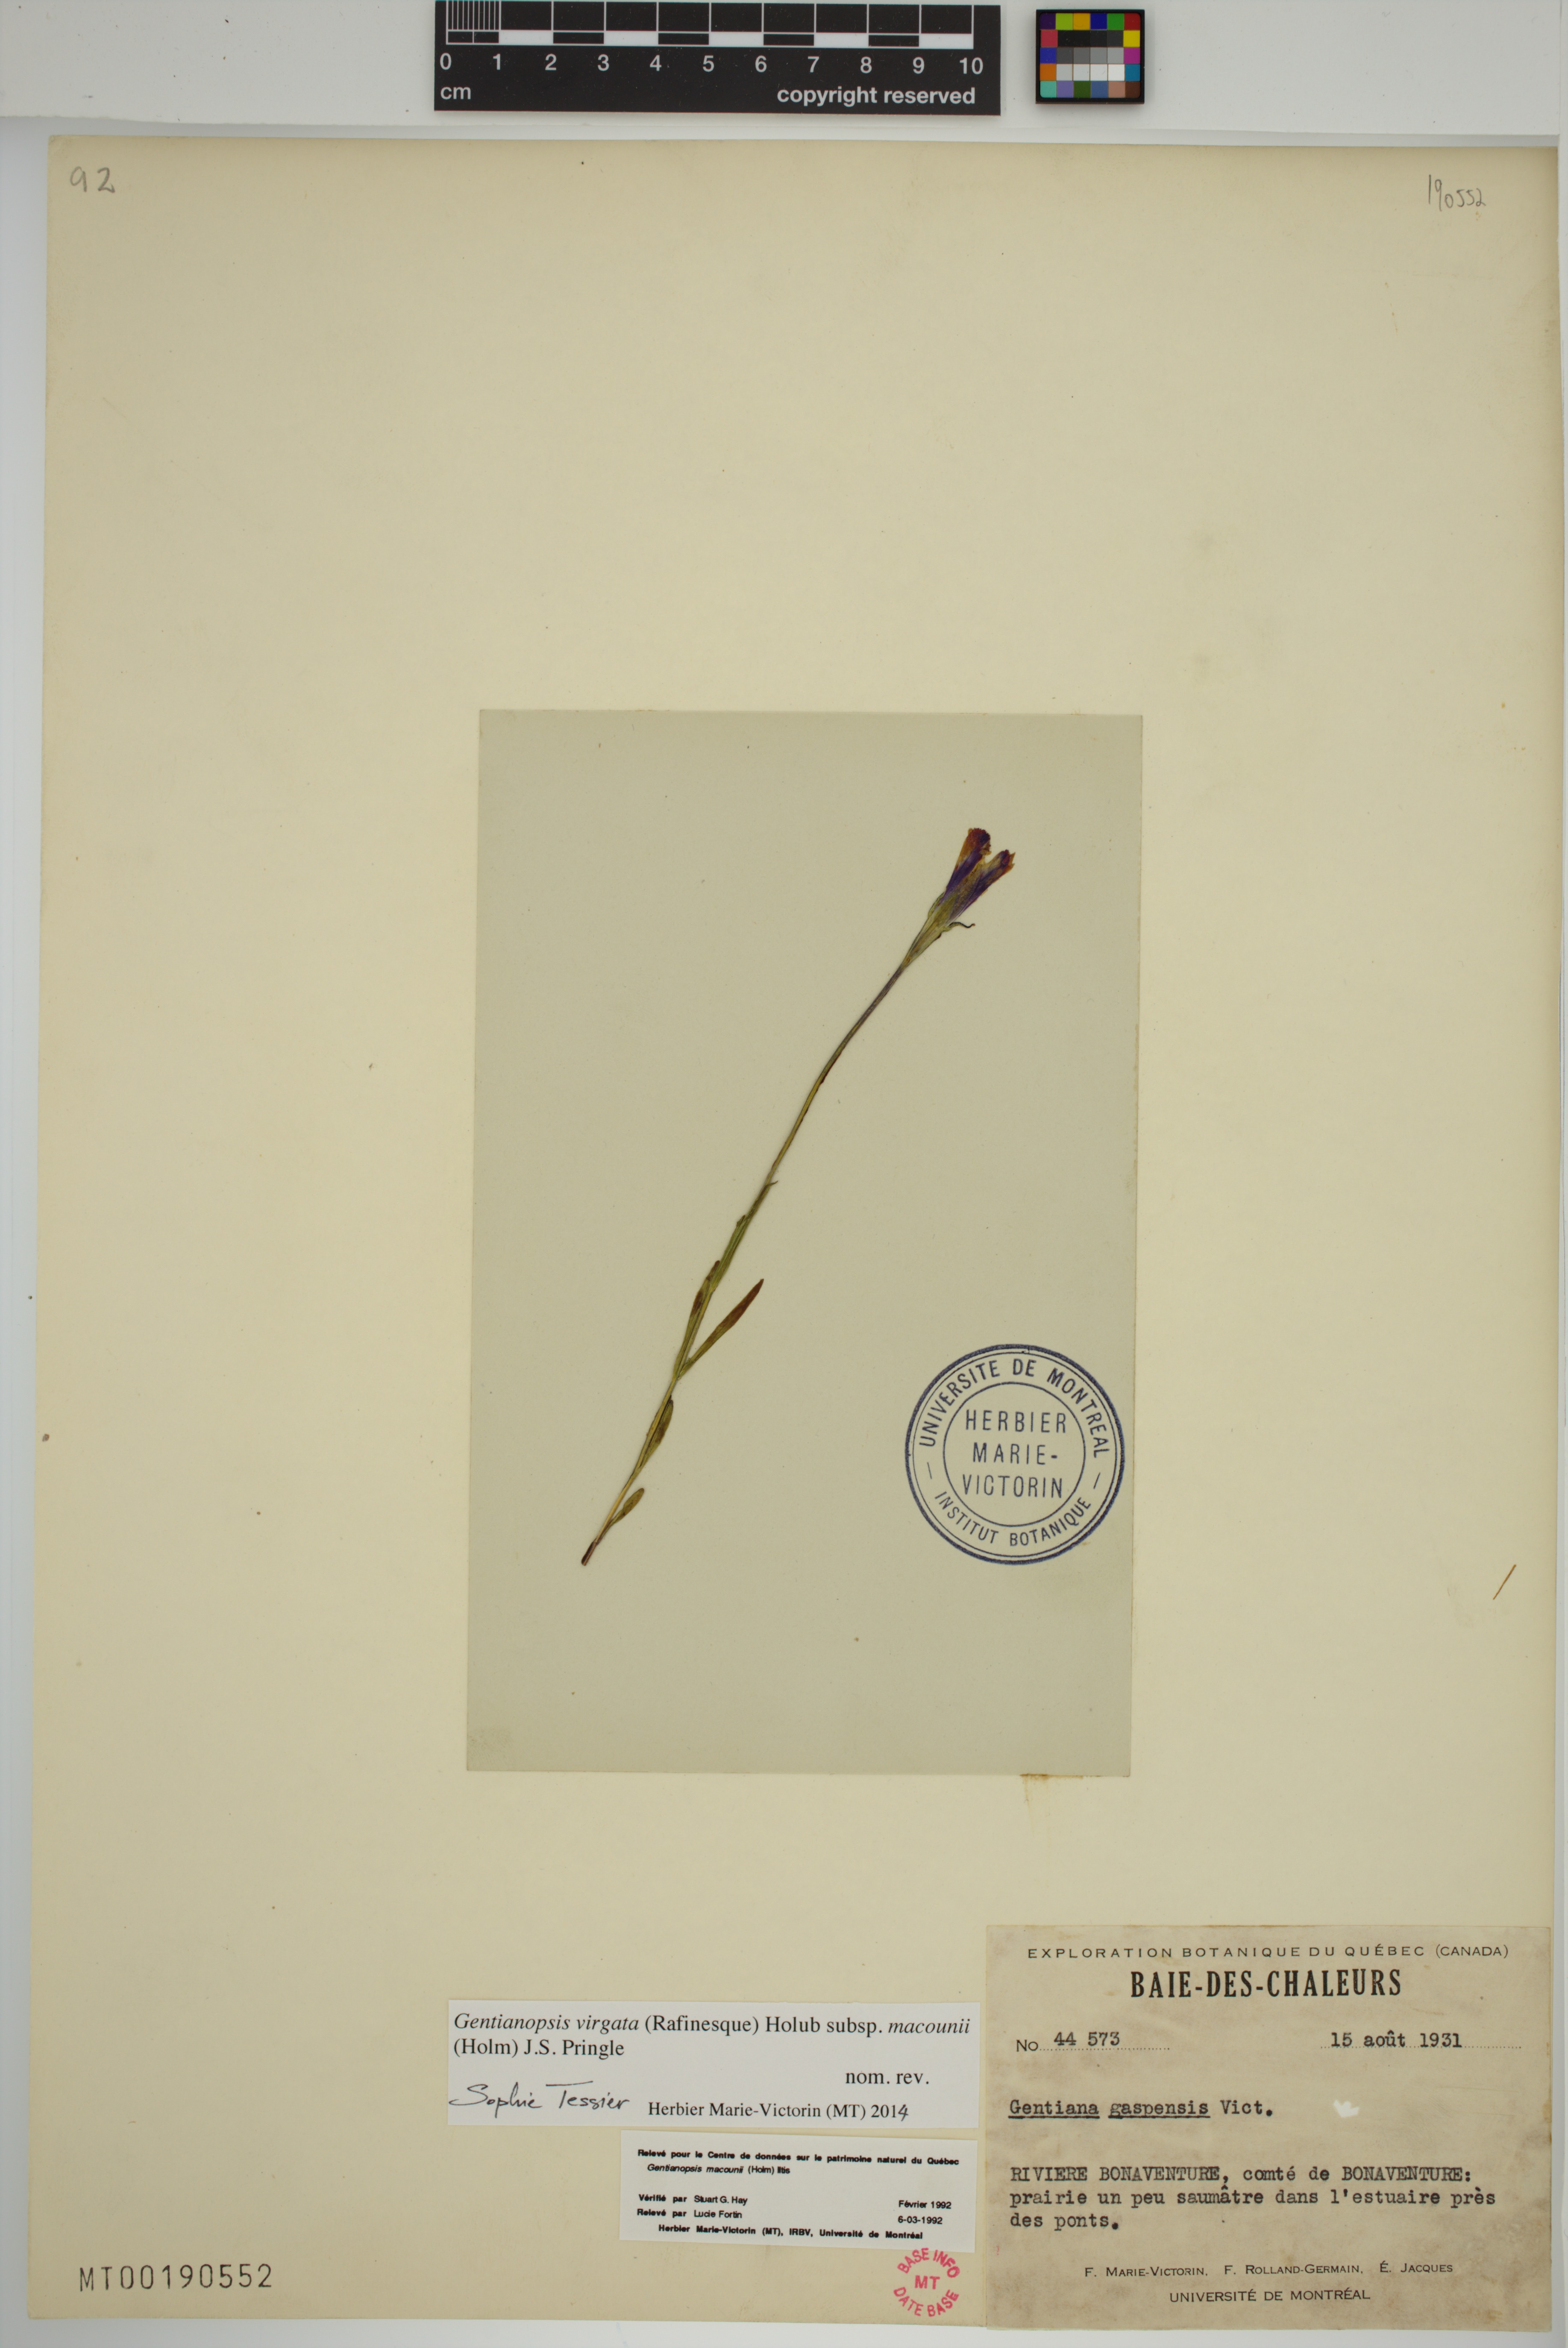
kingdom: Plantae
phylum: Tracheophyta
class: Magnoliopsida
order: Gentianales
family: Gentianaceae
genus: Gentianopsis
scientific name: Gentianopsis macounii
